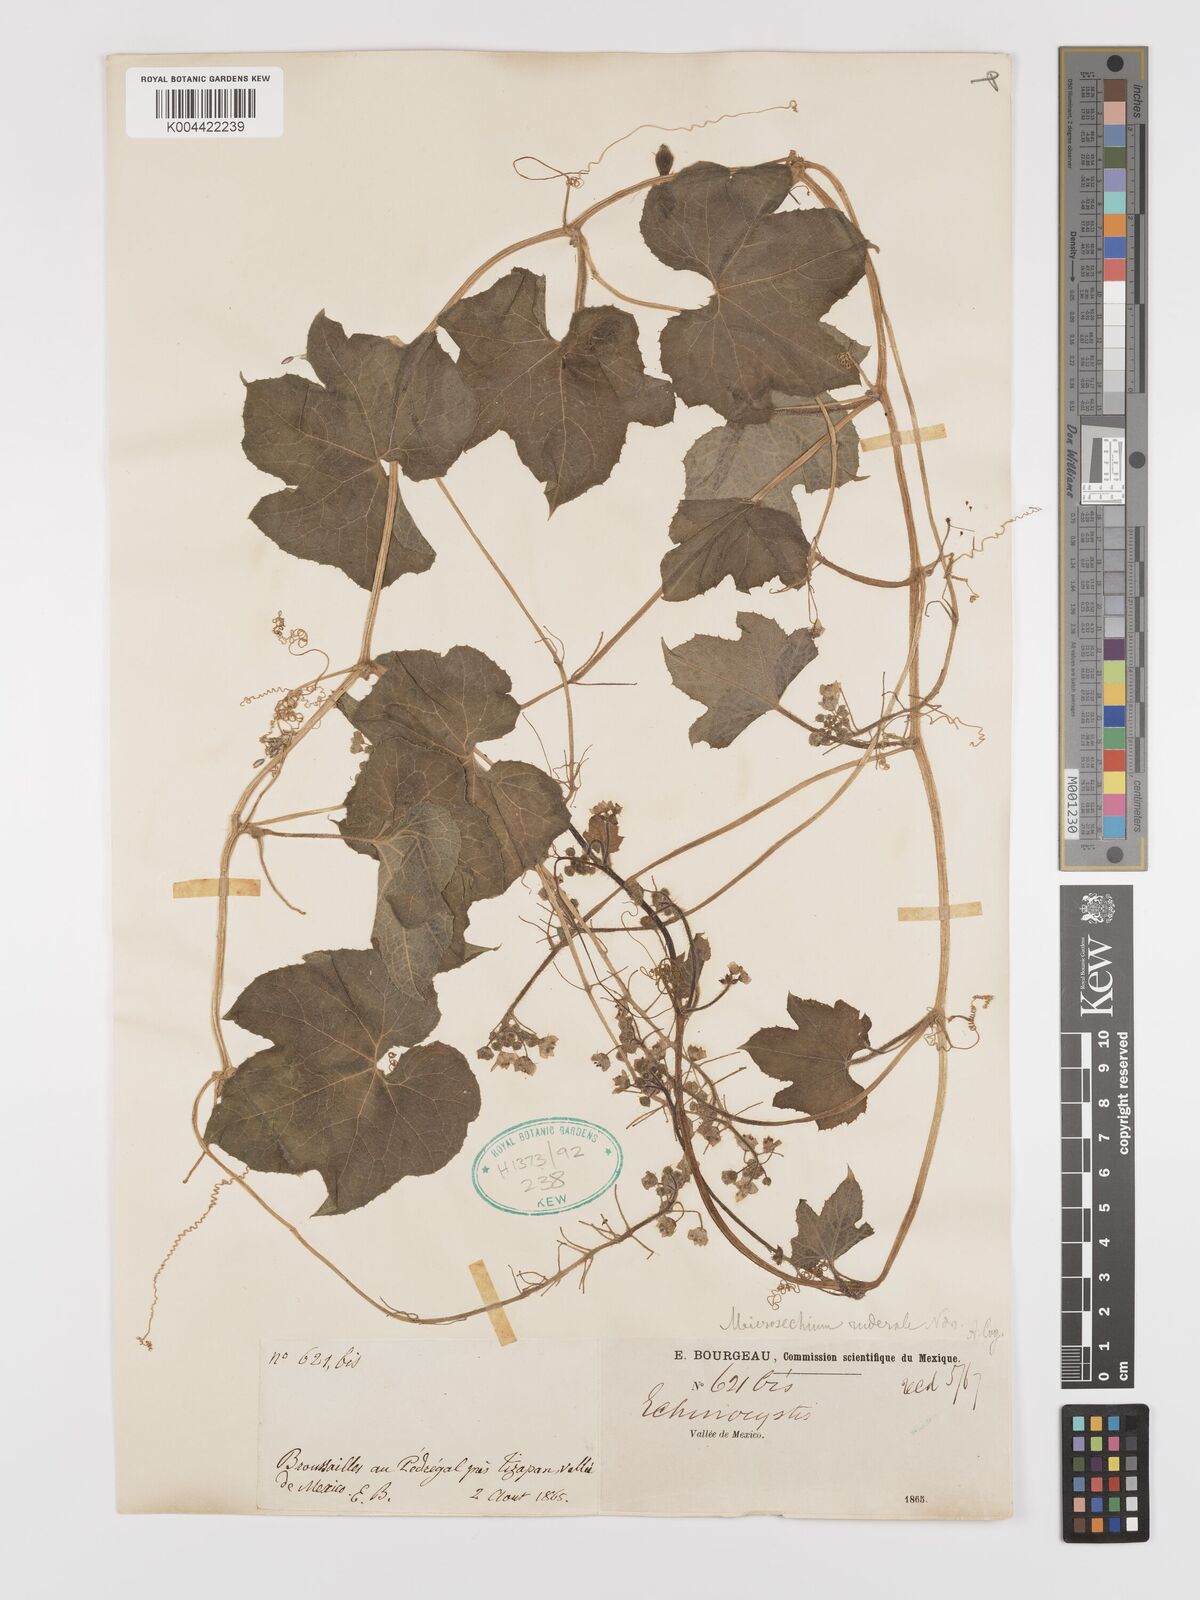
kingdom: Plantae
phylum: Tracheophyta
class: Magnoliopsida
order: Cucurbitales
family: Cucurbitaceae
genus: Microsechium
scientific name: Microsechium palmatum
